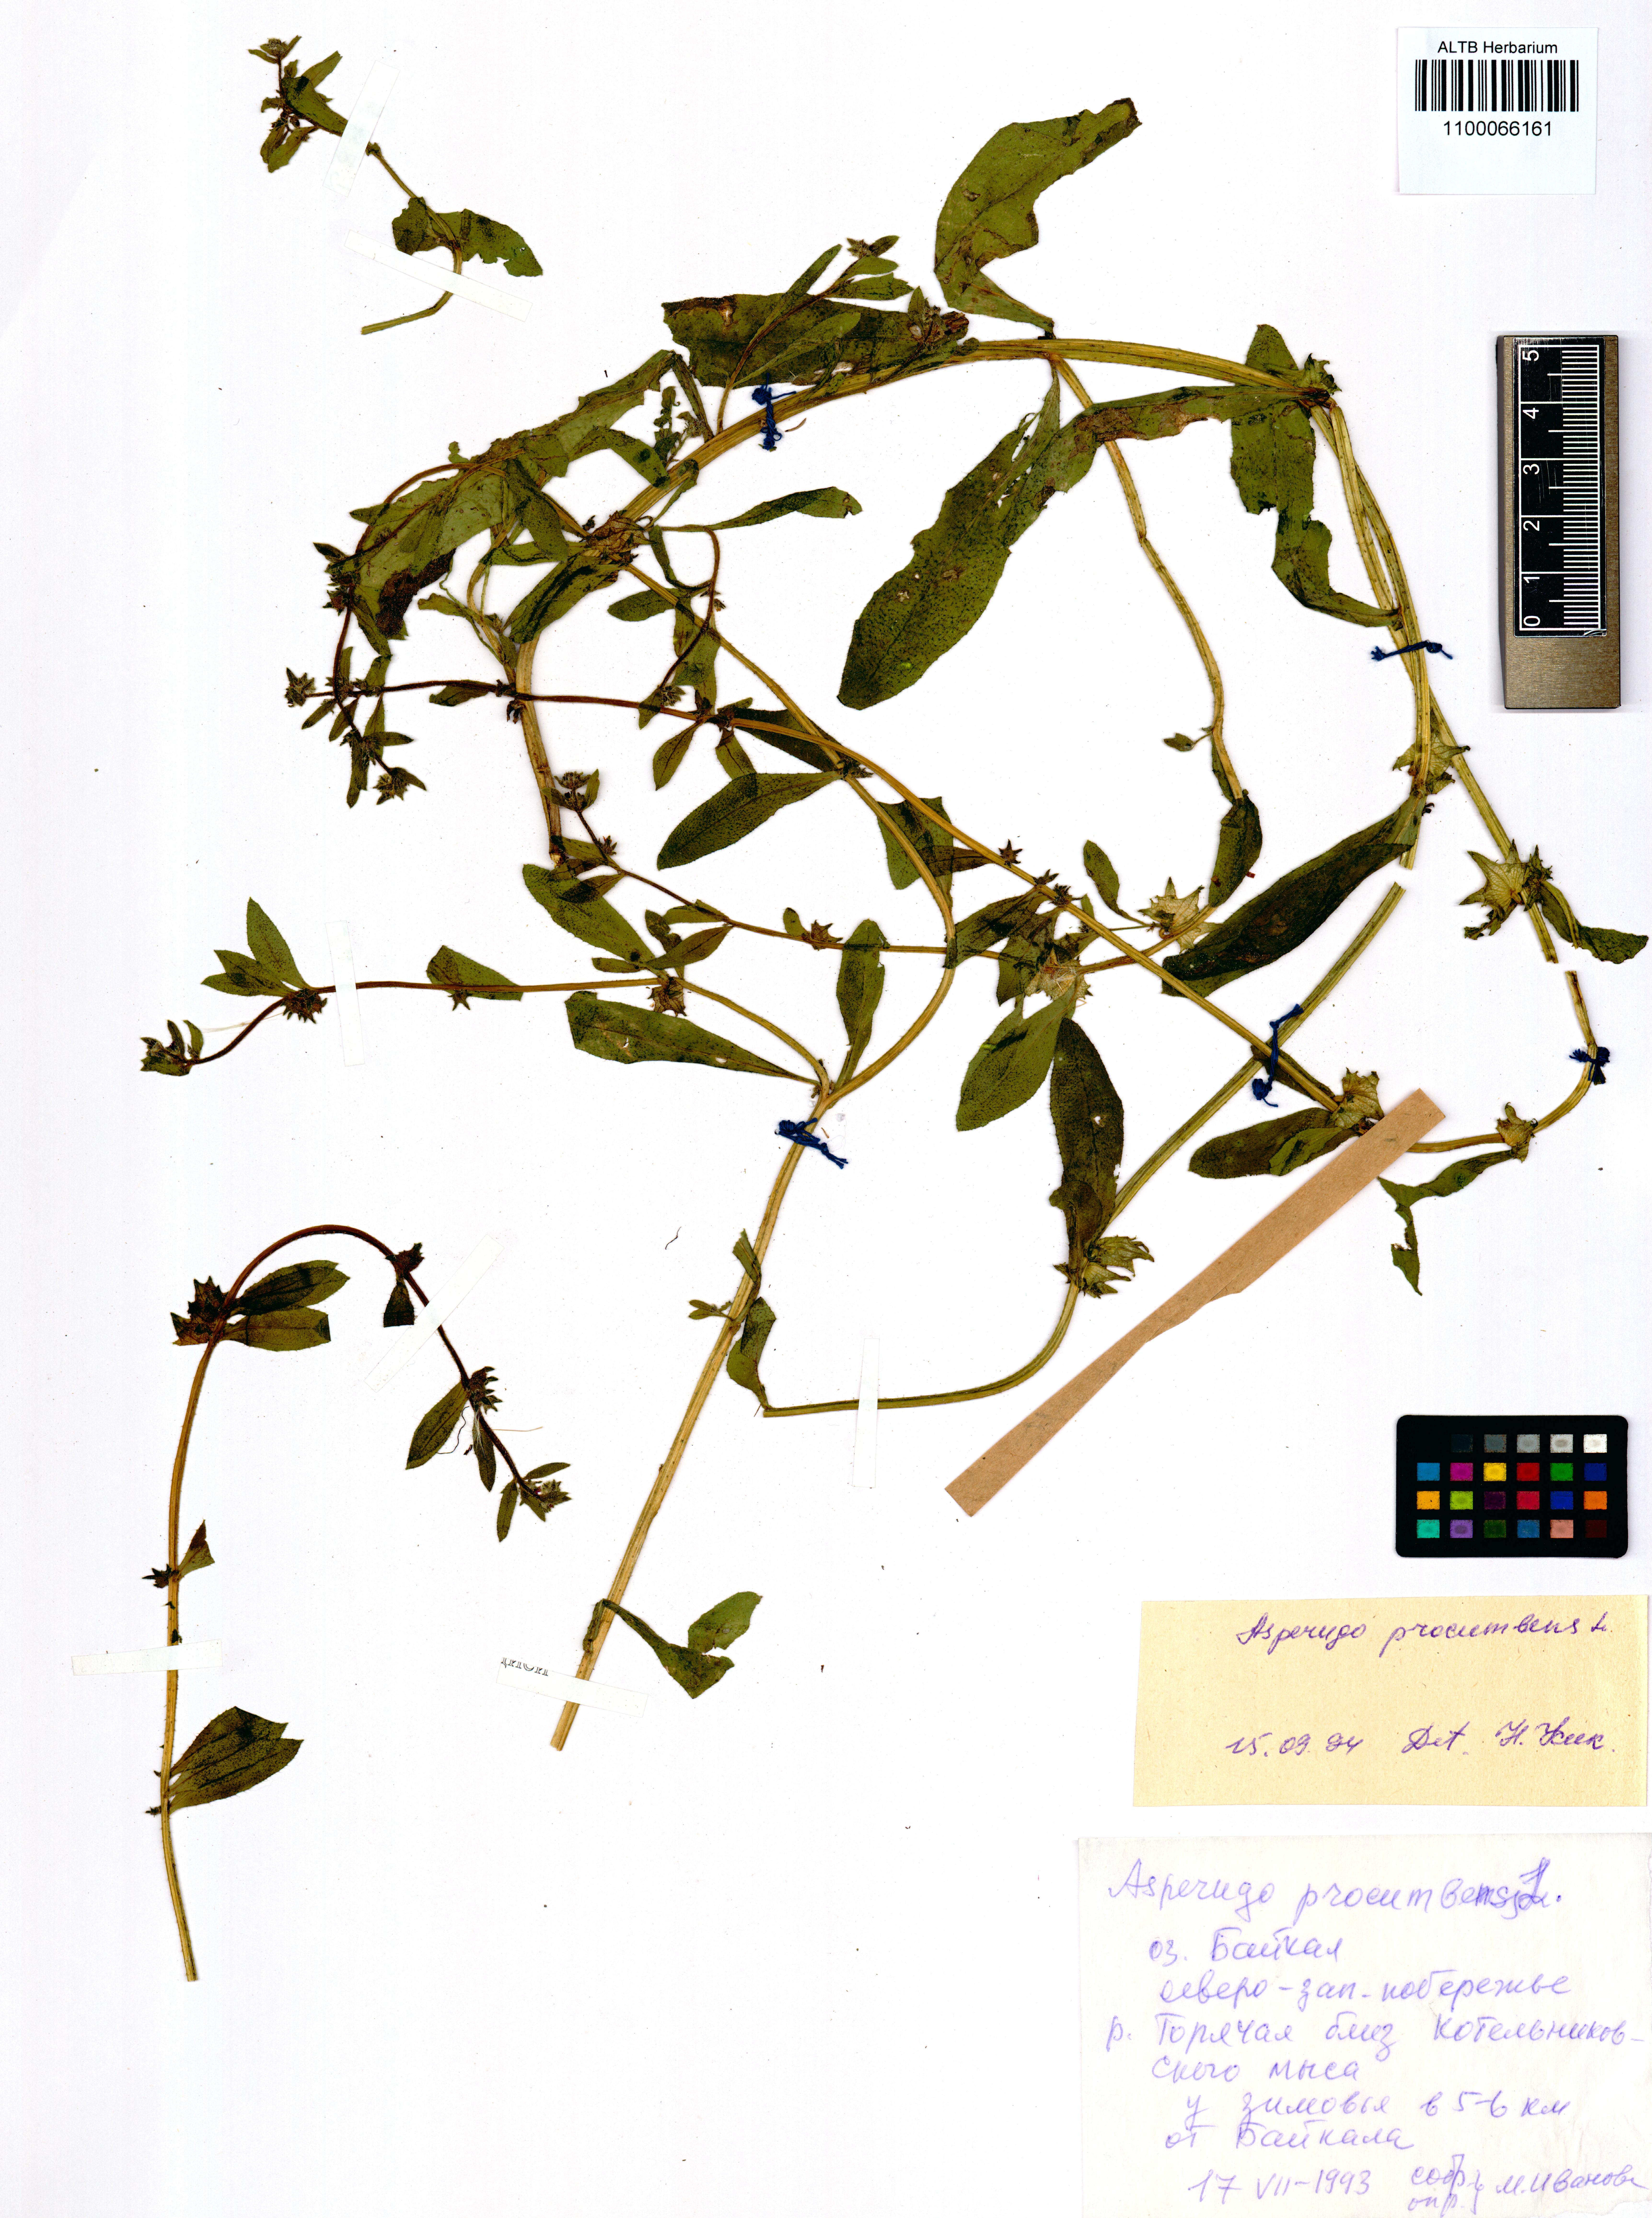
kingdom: Plantae
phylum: Tracheophyta
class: Magnoliopsida
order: Boraginales
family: Boraginaceae
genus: Asperugo
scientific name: Asperugo procumbens
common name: Madwort
